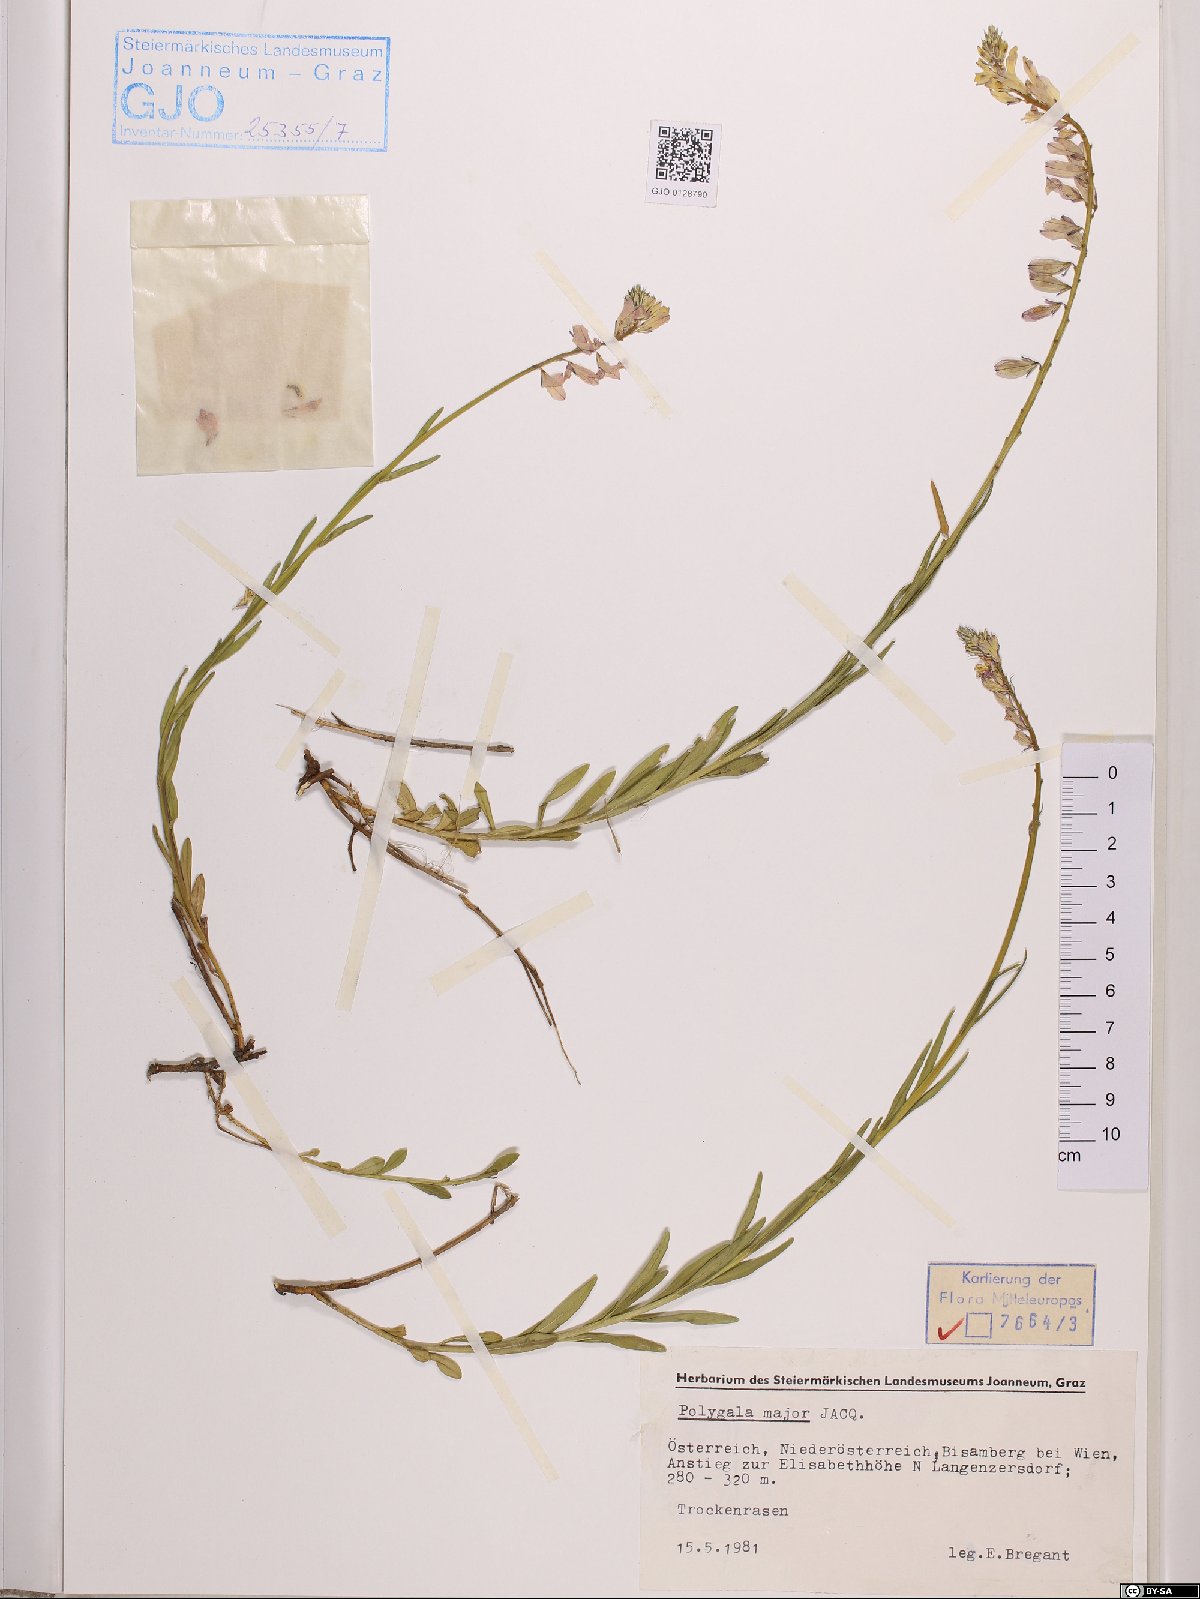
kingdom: Plantae
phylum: Tracheophyta
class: Magnoliopsida
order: Fabales
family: Polygalaceae
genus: Polygala
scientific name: Polygala major
